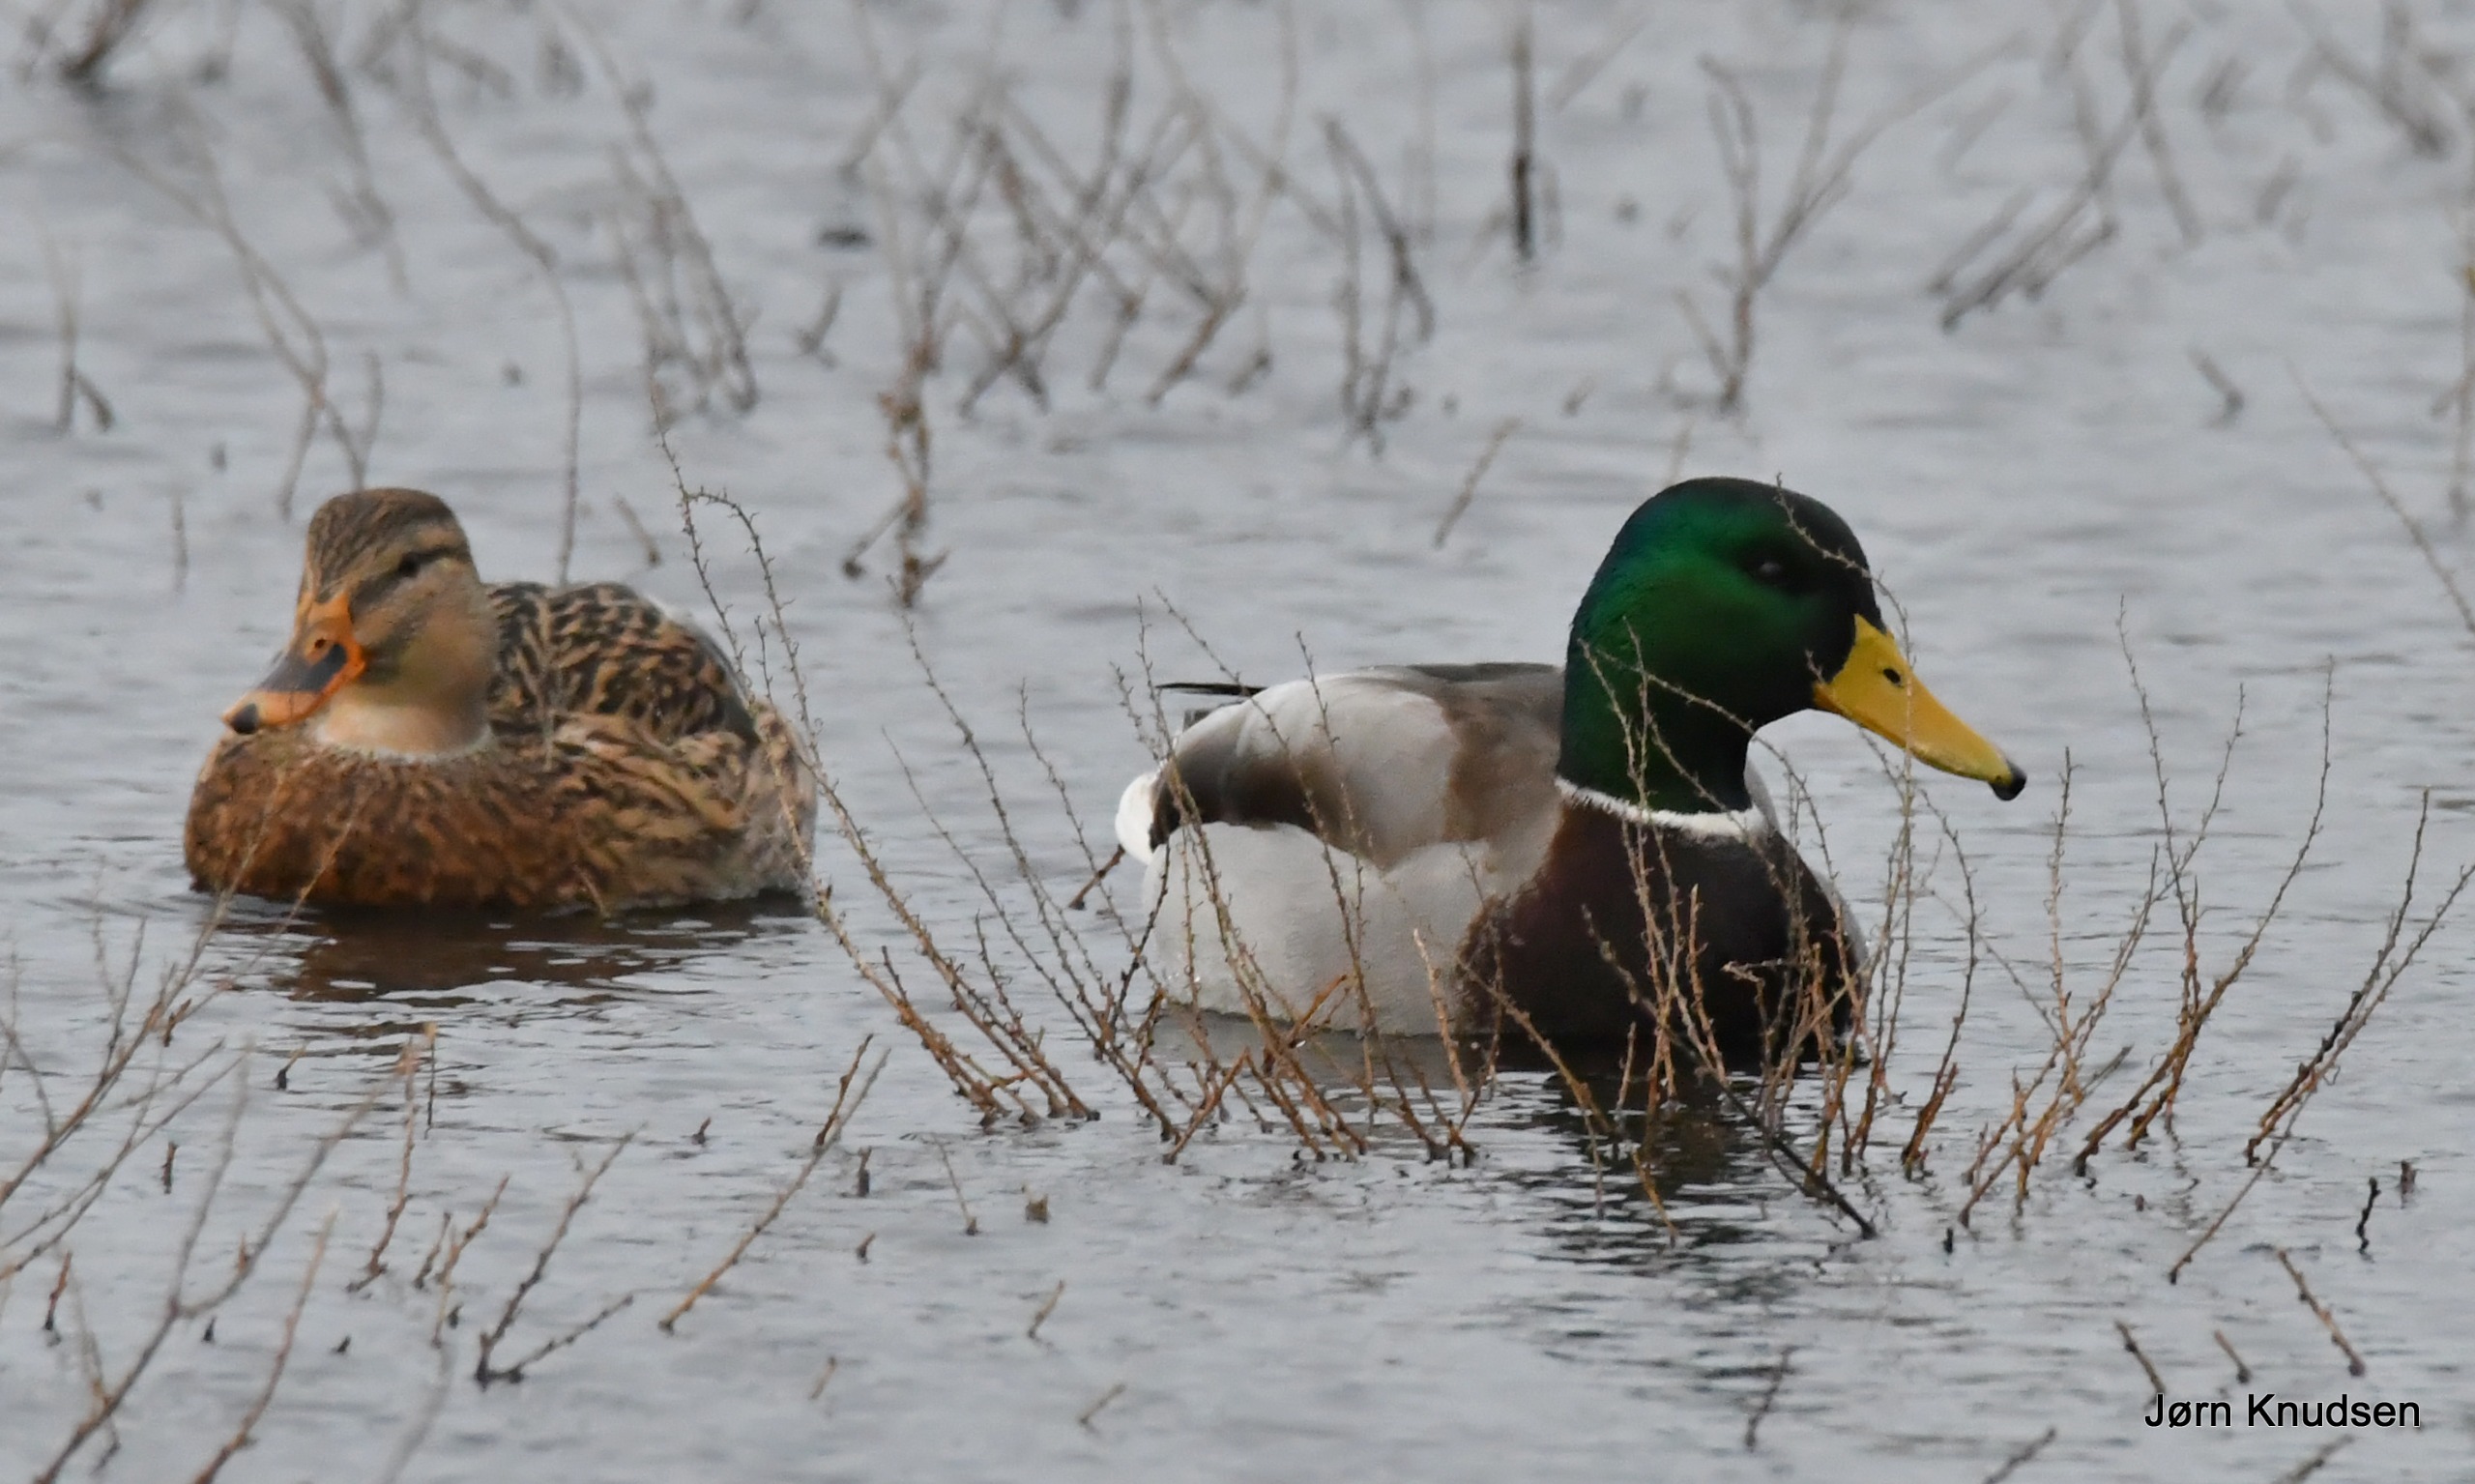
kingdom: Animalia
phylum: Chordata
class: Aves
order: Anseriformes
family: Anatidae
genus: Anas
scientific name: Anas platyrhynchos
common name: Gråand
